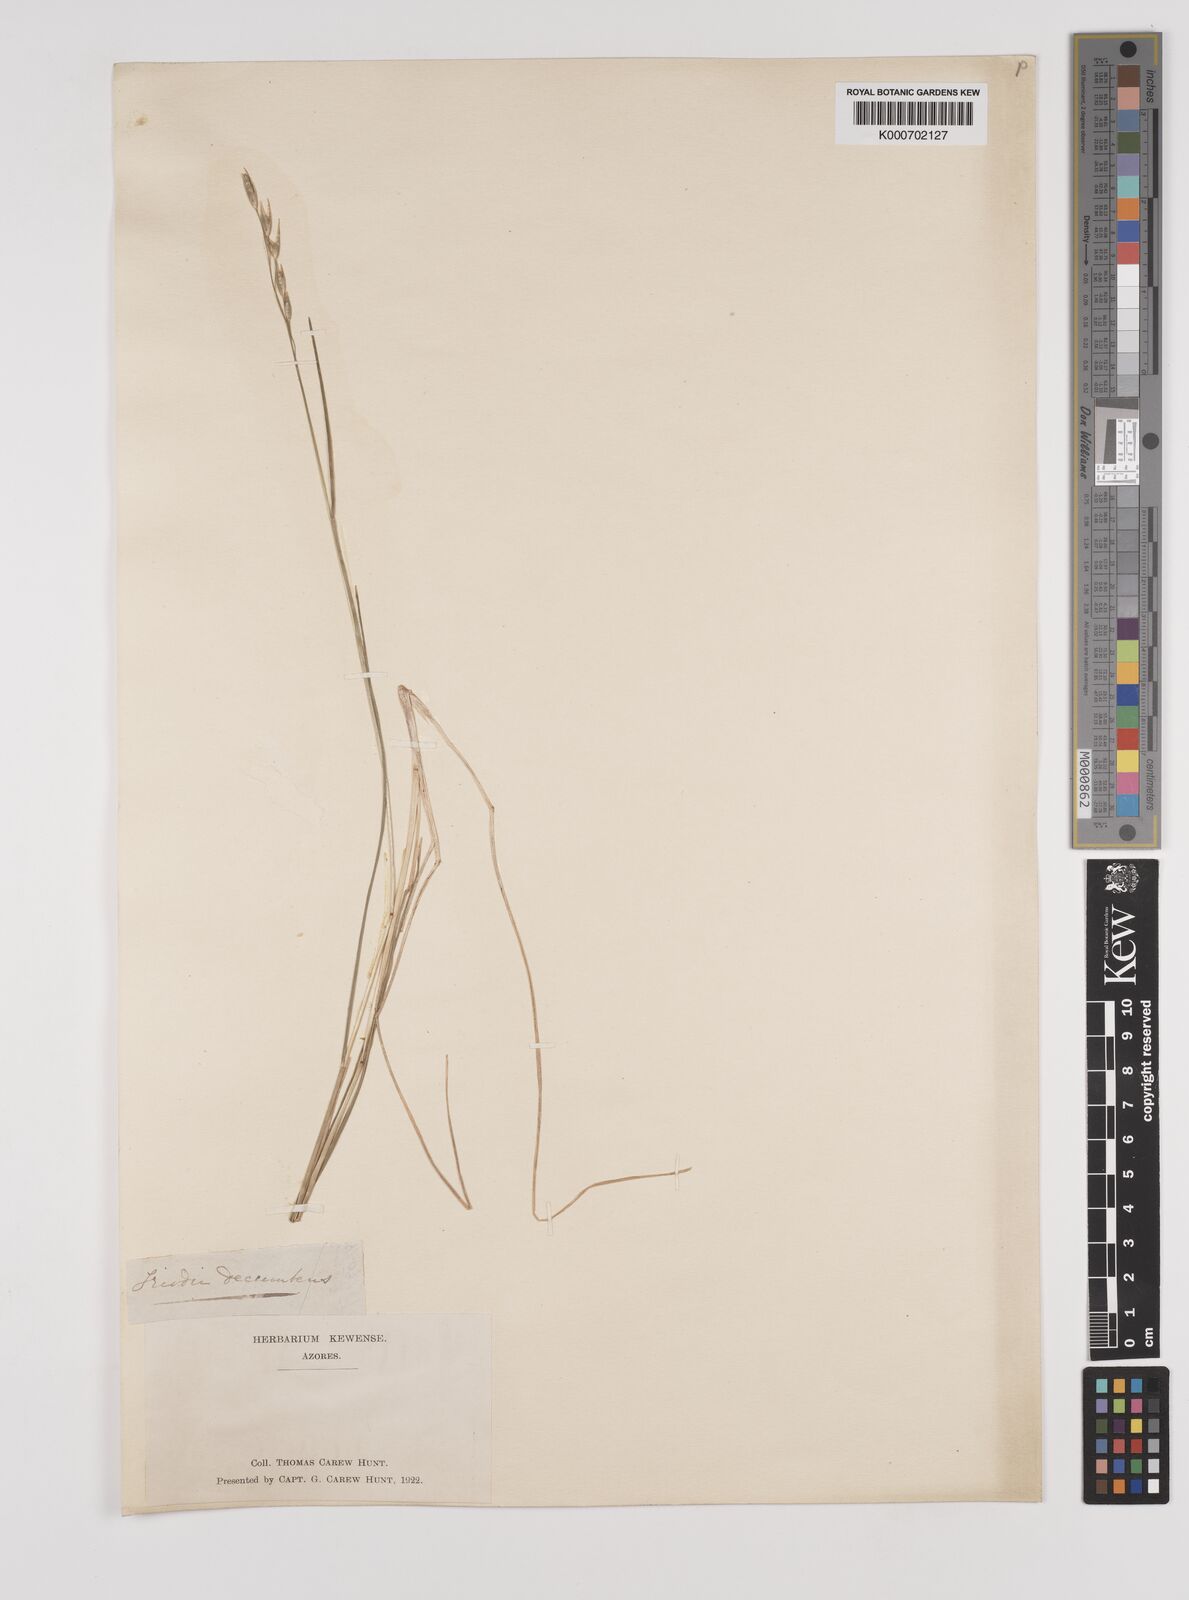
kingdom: Plantae
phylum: Tracheophyta
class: Liliopsida
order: Poales
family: Poaceae
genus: Danthonia
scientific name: Danthonia decumbens
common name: Common heathgrass
